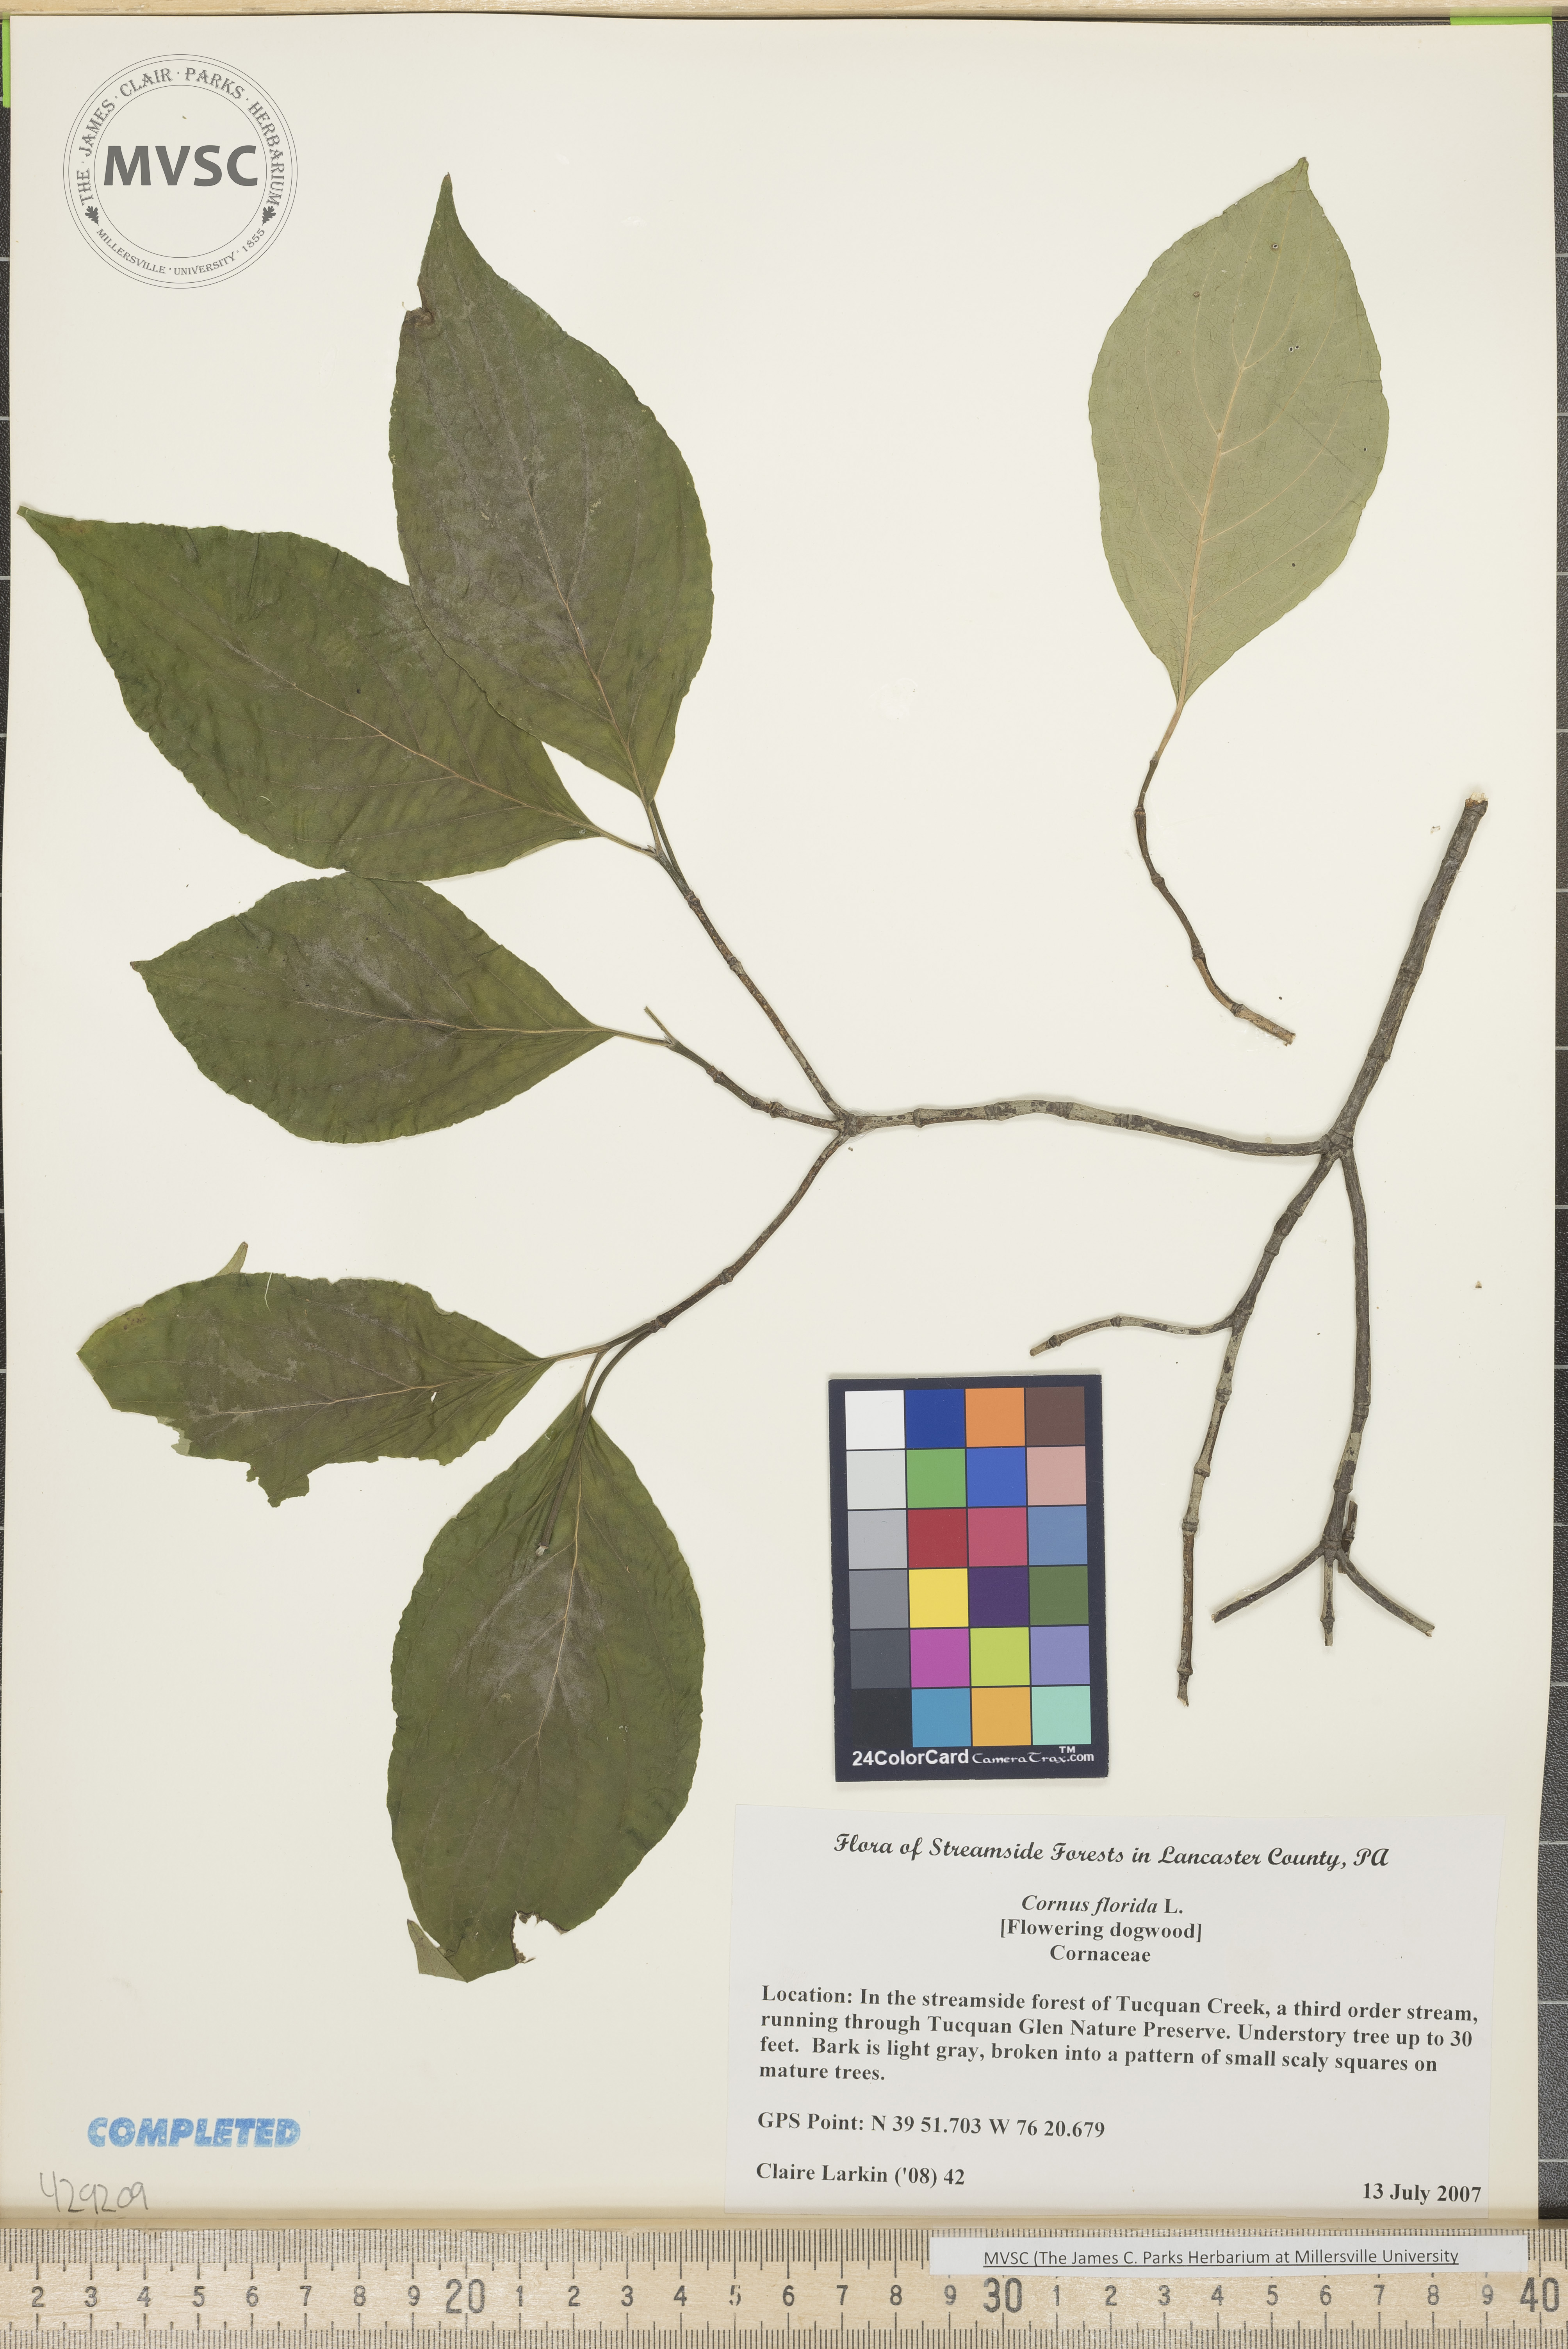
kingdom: Plantae
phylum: Tracheophyta
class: Magnoliopsida
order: Cornales
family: Cornaceae
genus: Cornus
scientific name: Cornus florida
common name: Flowering dogwood
